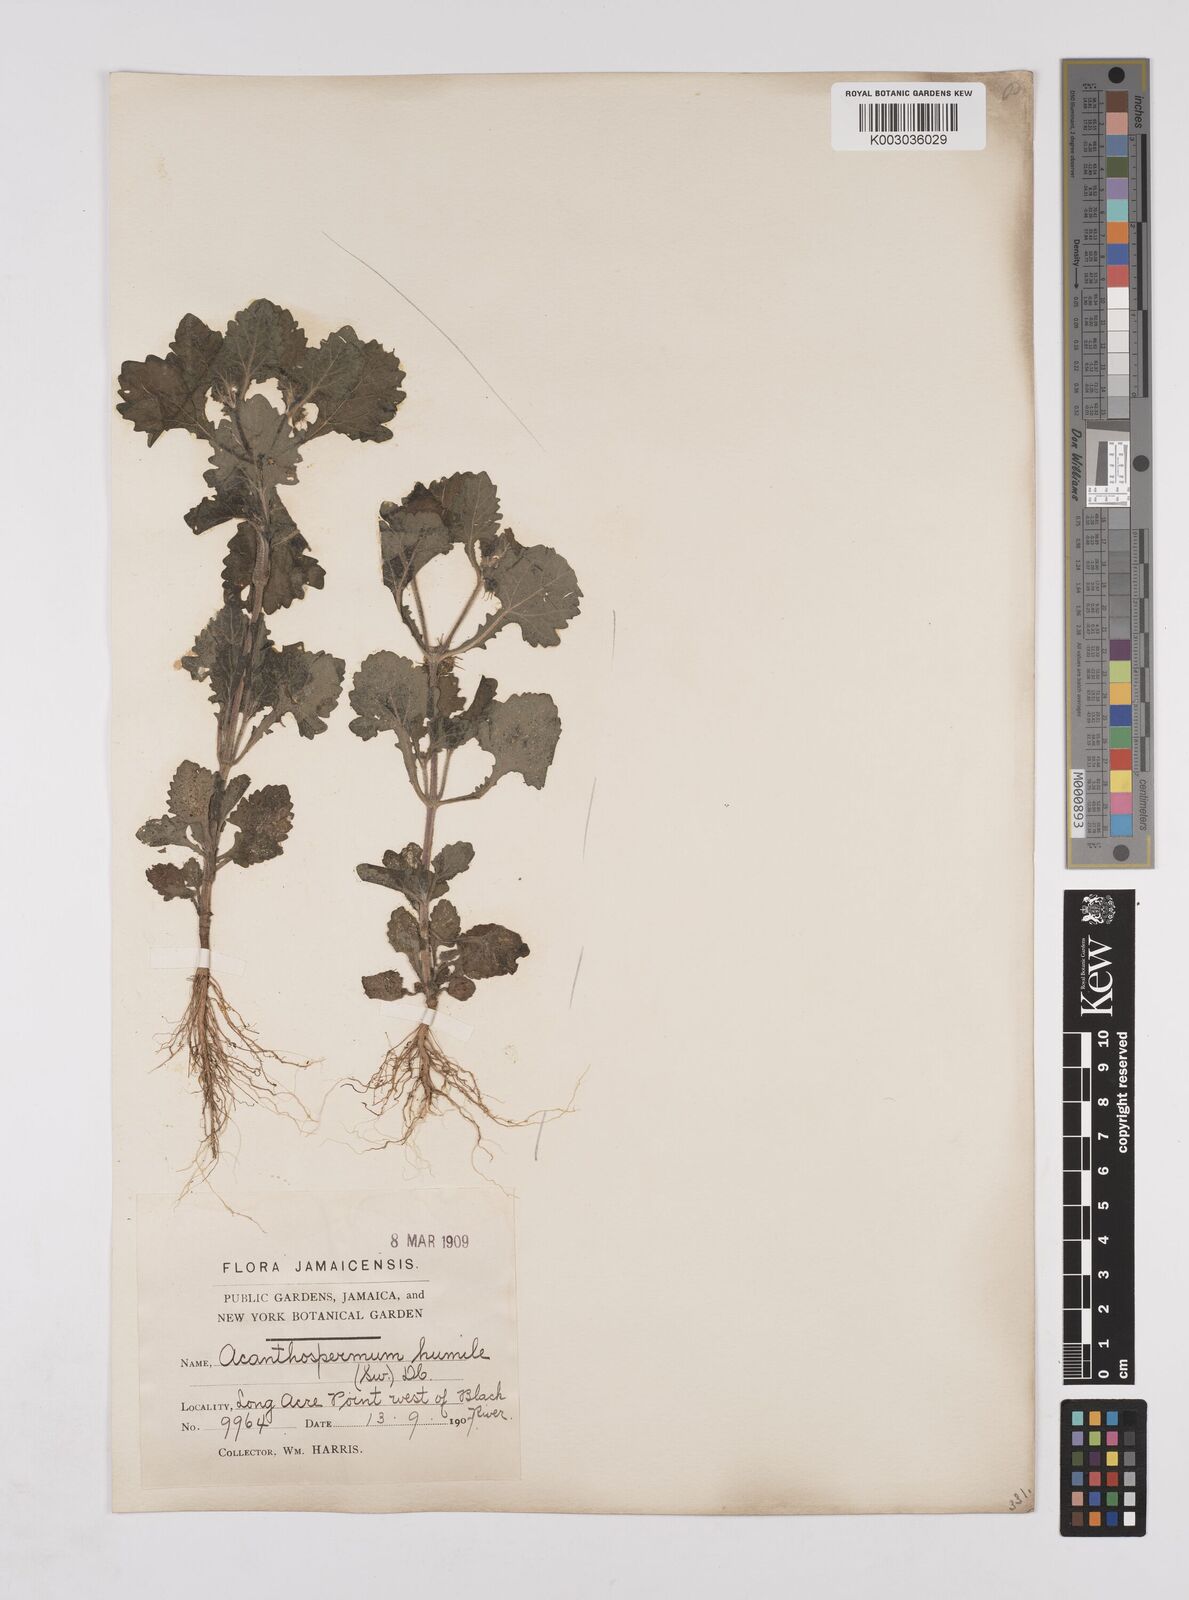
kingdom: Plantae
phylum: Tracheophyta
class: Magnoliopsida
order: Asterales
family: Asteraceae
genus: Acanthospermum
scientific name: Acanthospermum humile
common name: Low starbur
